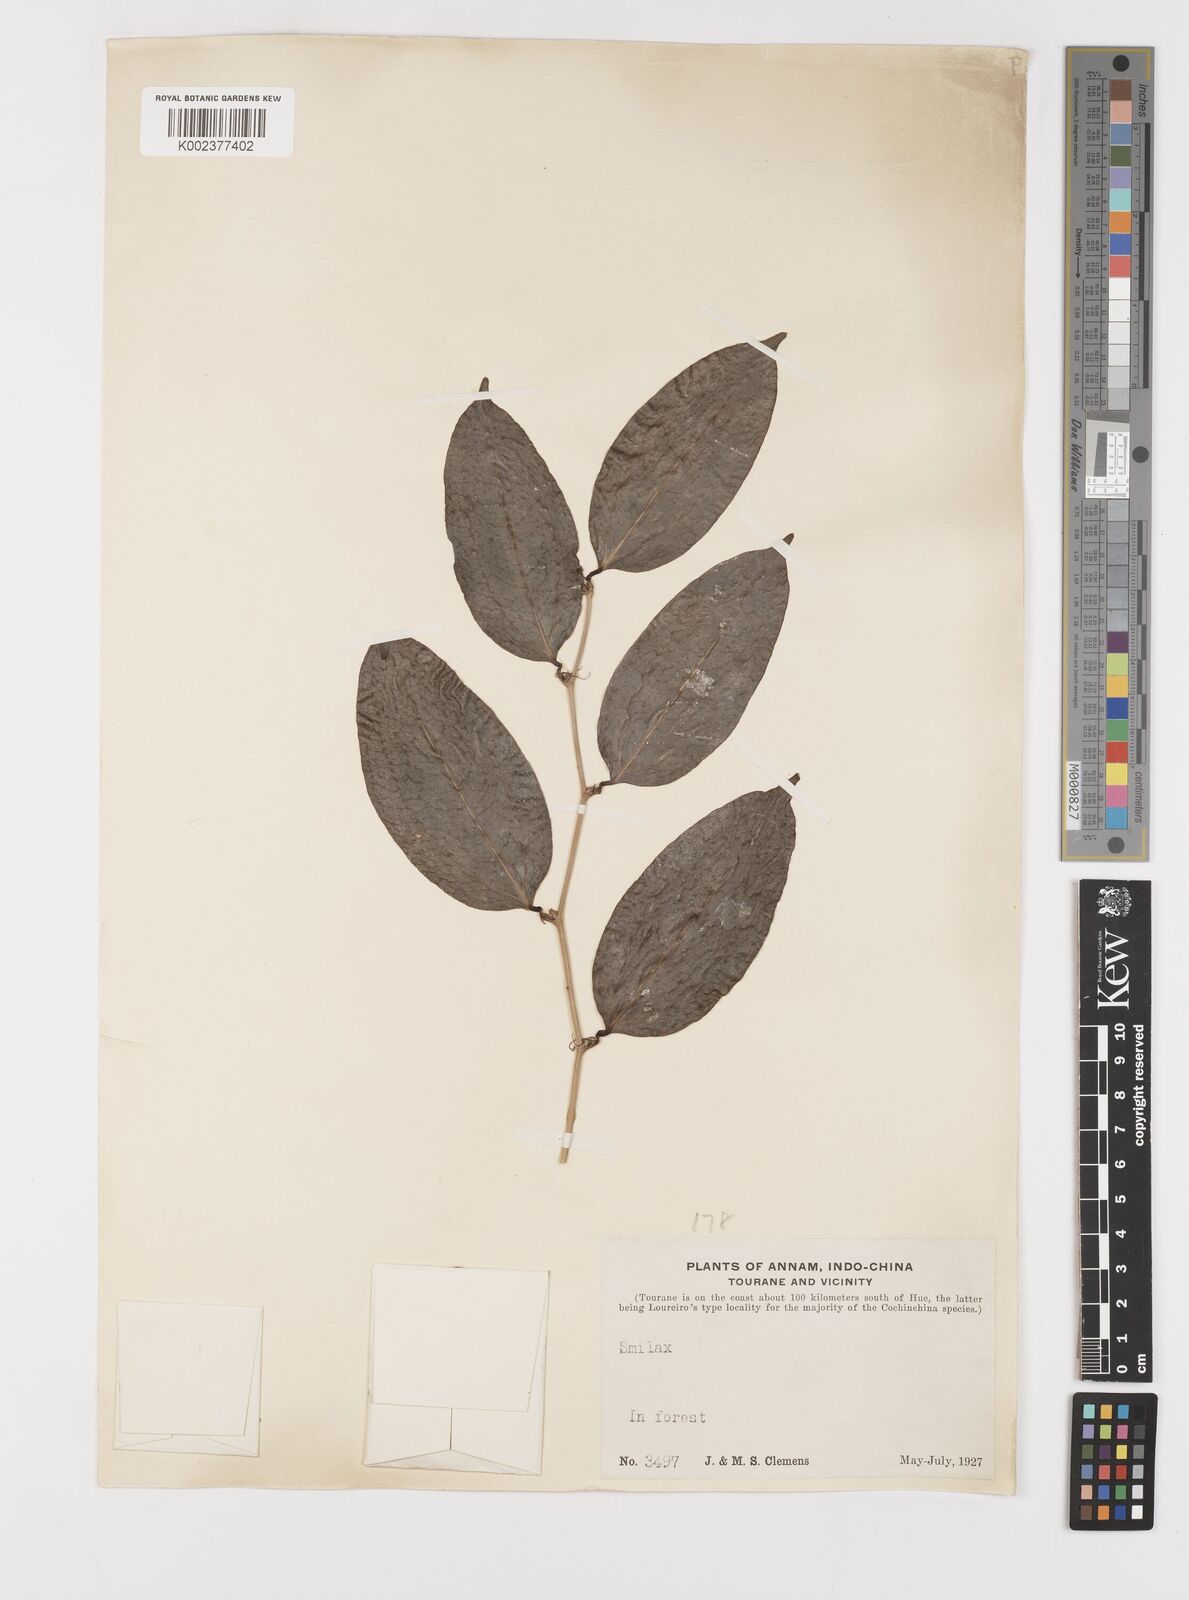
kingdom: Plantae
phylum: Tracheophyta
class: Liliopsida
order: Liliales
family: Smilacaceae
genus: Smilax
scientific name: Smilax
